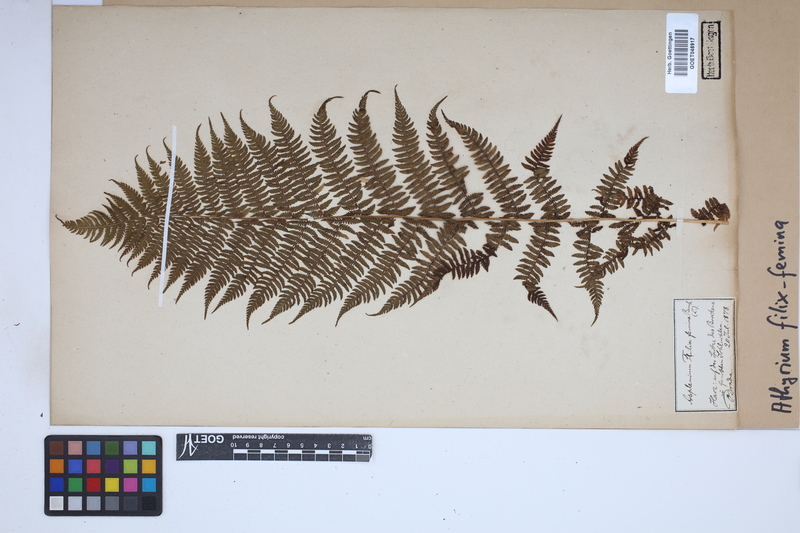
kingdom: Plantae
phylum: Tracheophyta
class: Polypodiopsida
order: Polypodiales
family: Athyriaceae
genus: Athyrium
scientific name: Athyrium filix-femina
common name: Lady fern
